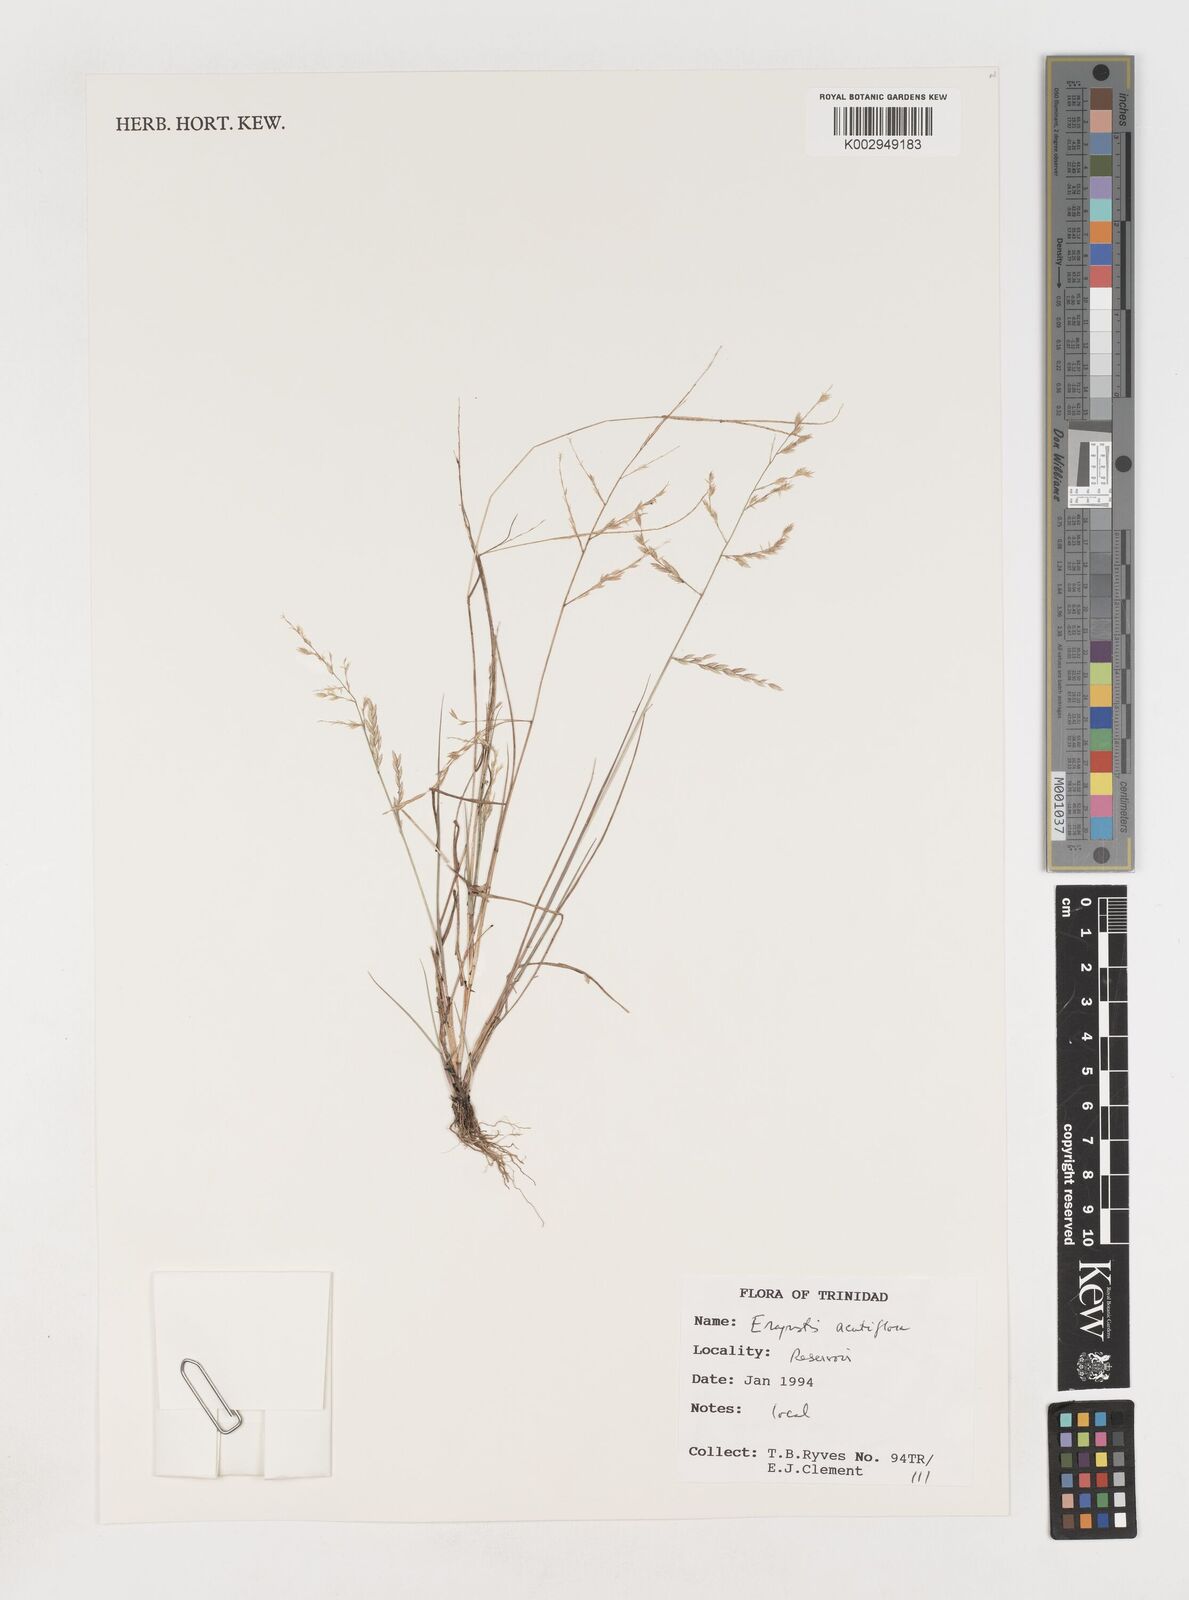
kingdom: Plantae
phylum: Tracheophyta
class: Liliopsida
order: Poales
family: Poaceae
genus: Eragrostis
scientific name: Eragrostis acutiflora
